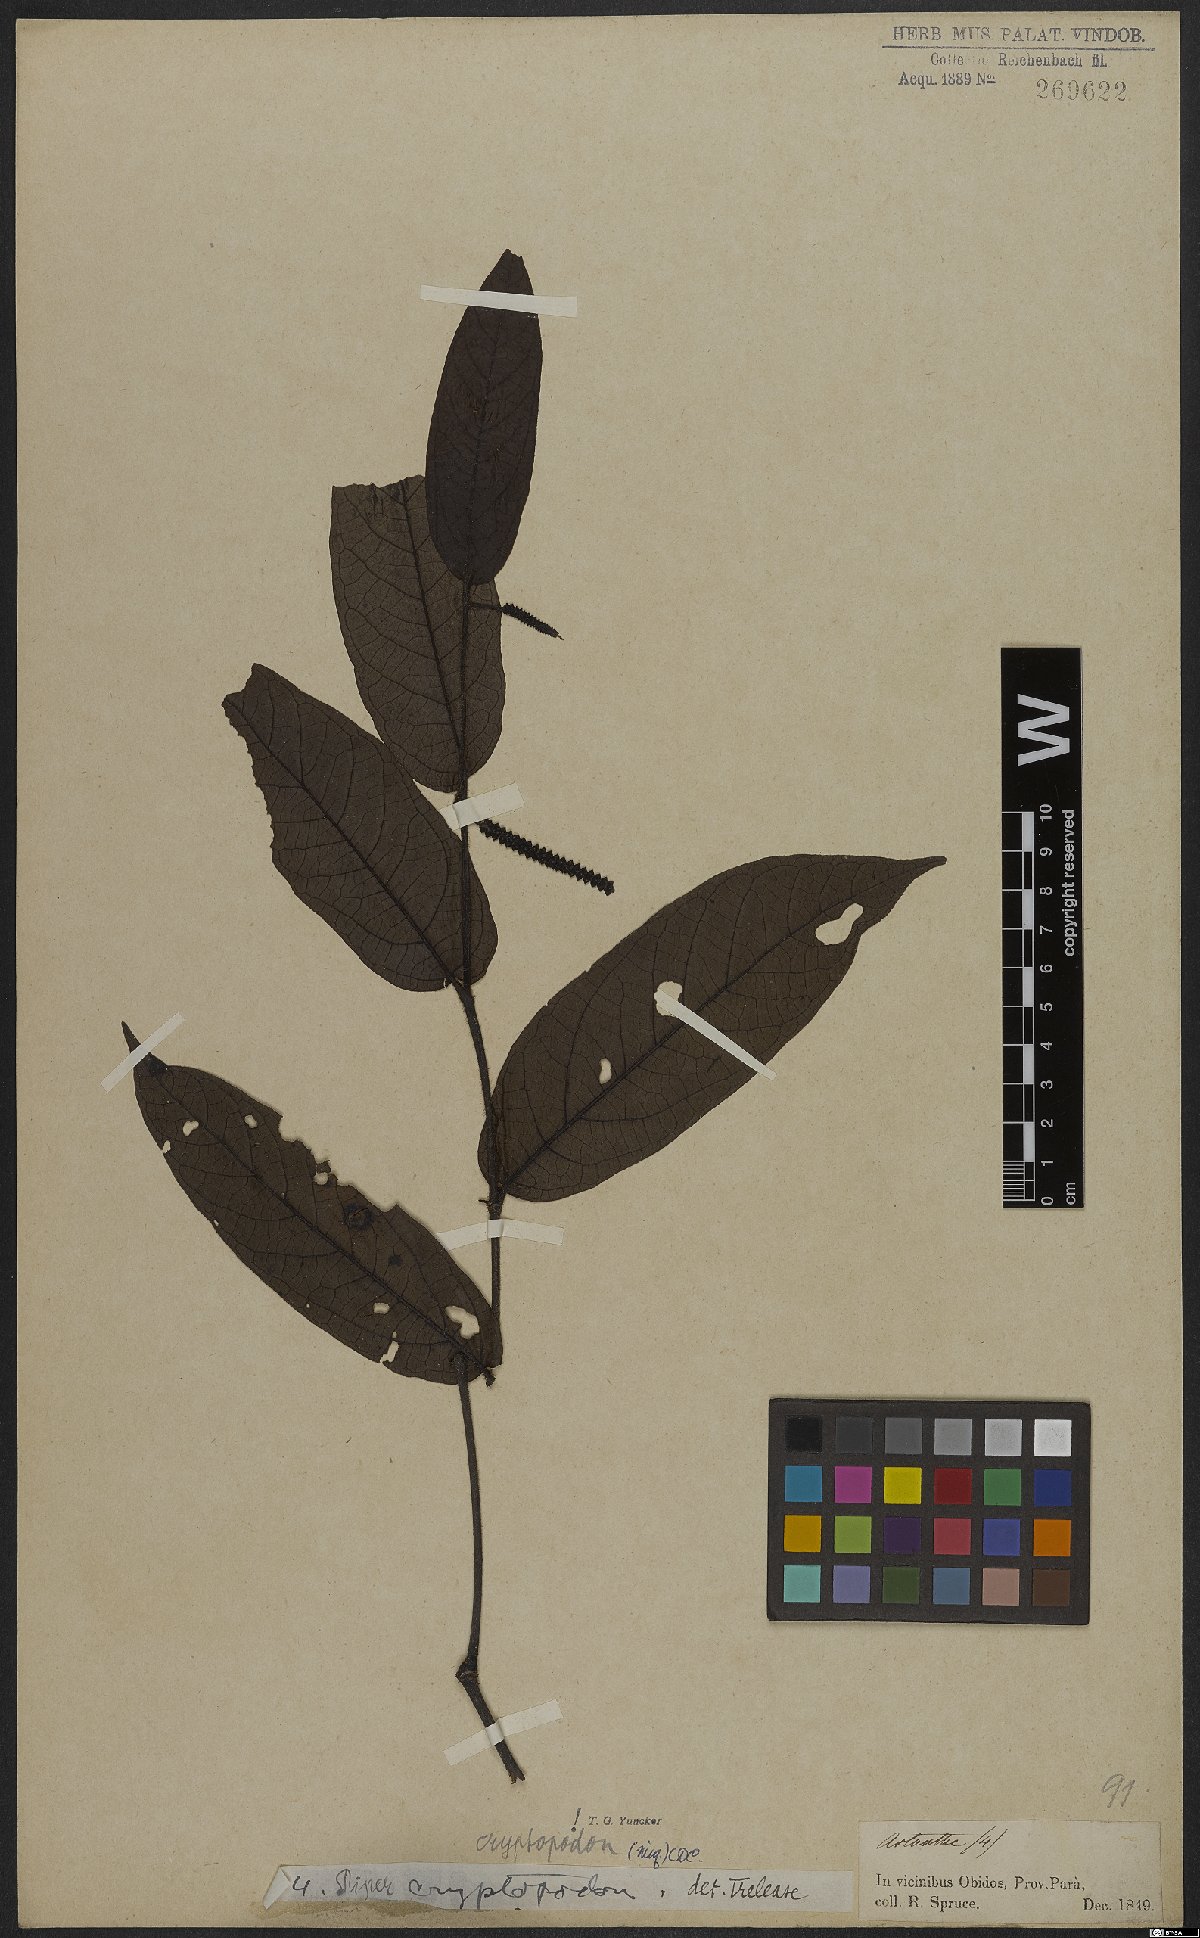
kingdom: Plantae
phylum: Tracheophyta
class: Magnoliopsida
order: Piperales
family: Piperaceae
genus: Piper
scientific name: Piper
